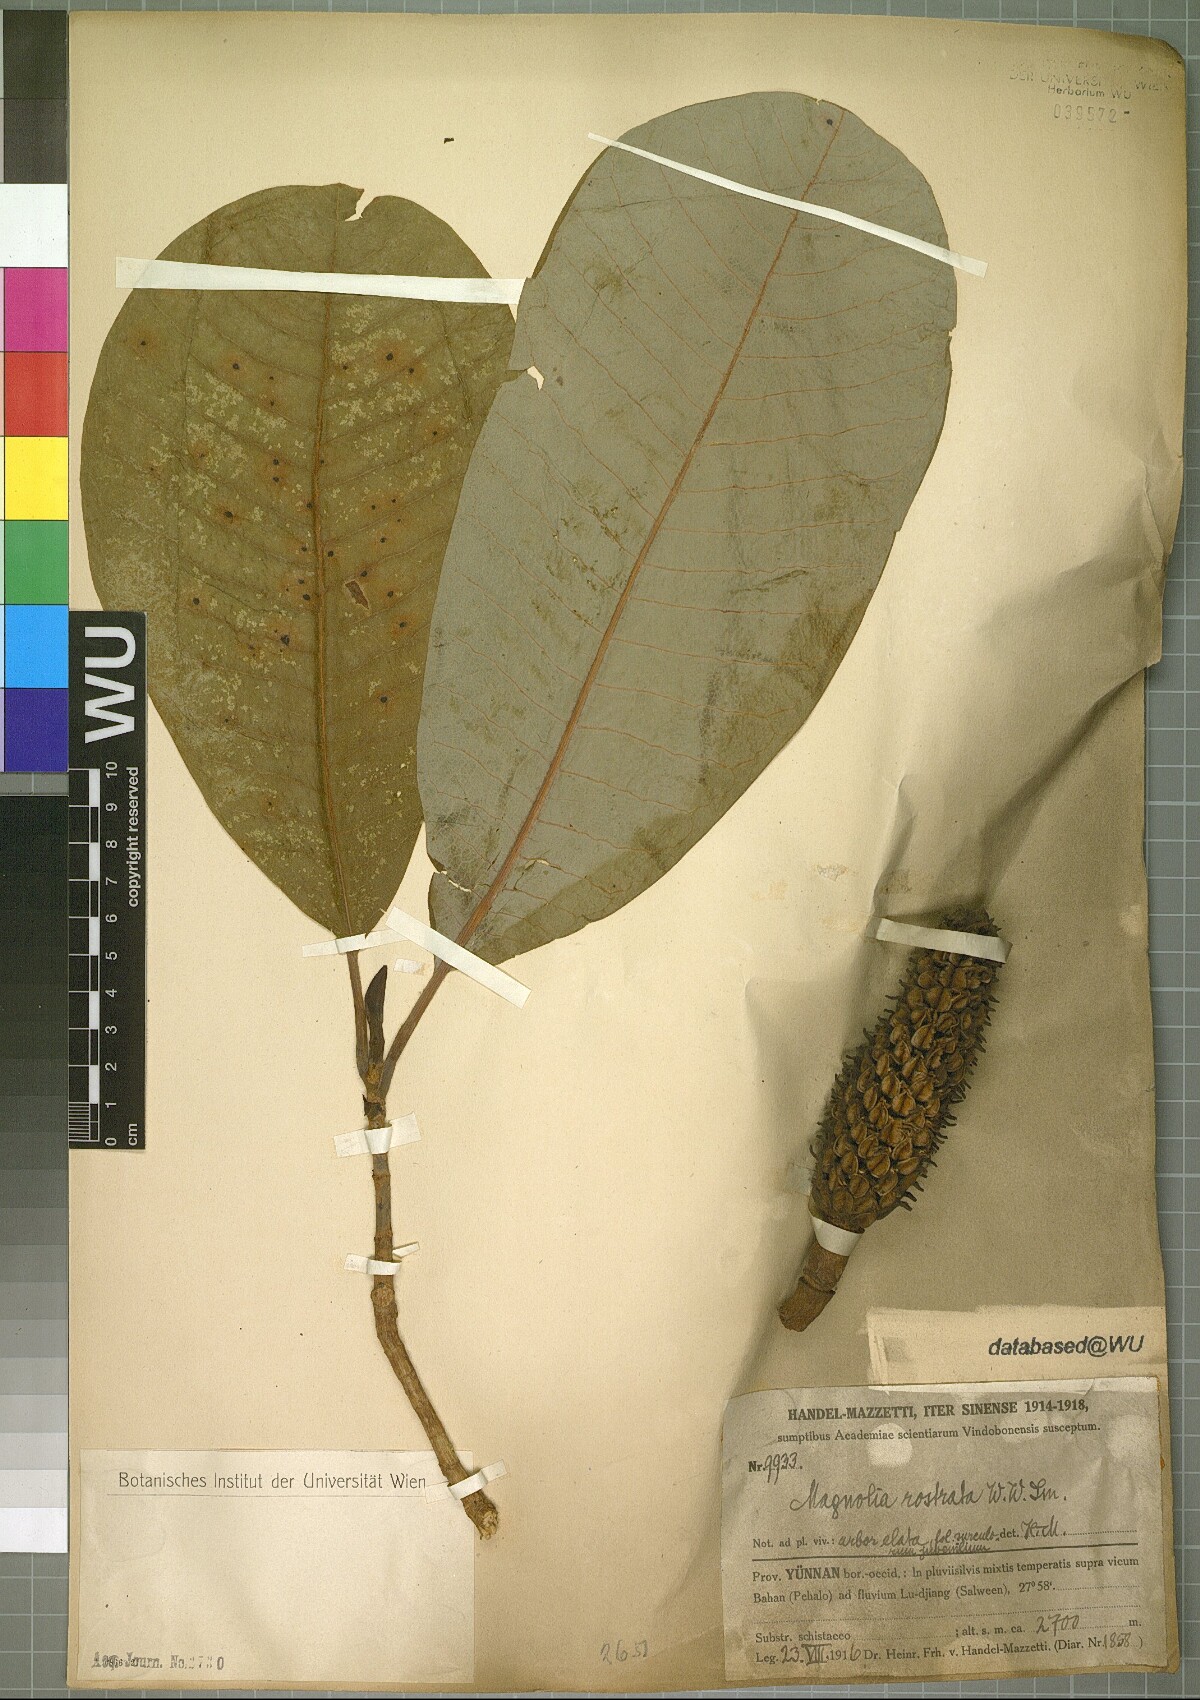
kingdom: Plantae
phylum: Tracheophyta
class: Magnoliopsida
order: Magnoliales
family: Magnoliaceae
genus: Magnolia
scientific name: Magnolia rostrata
